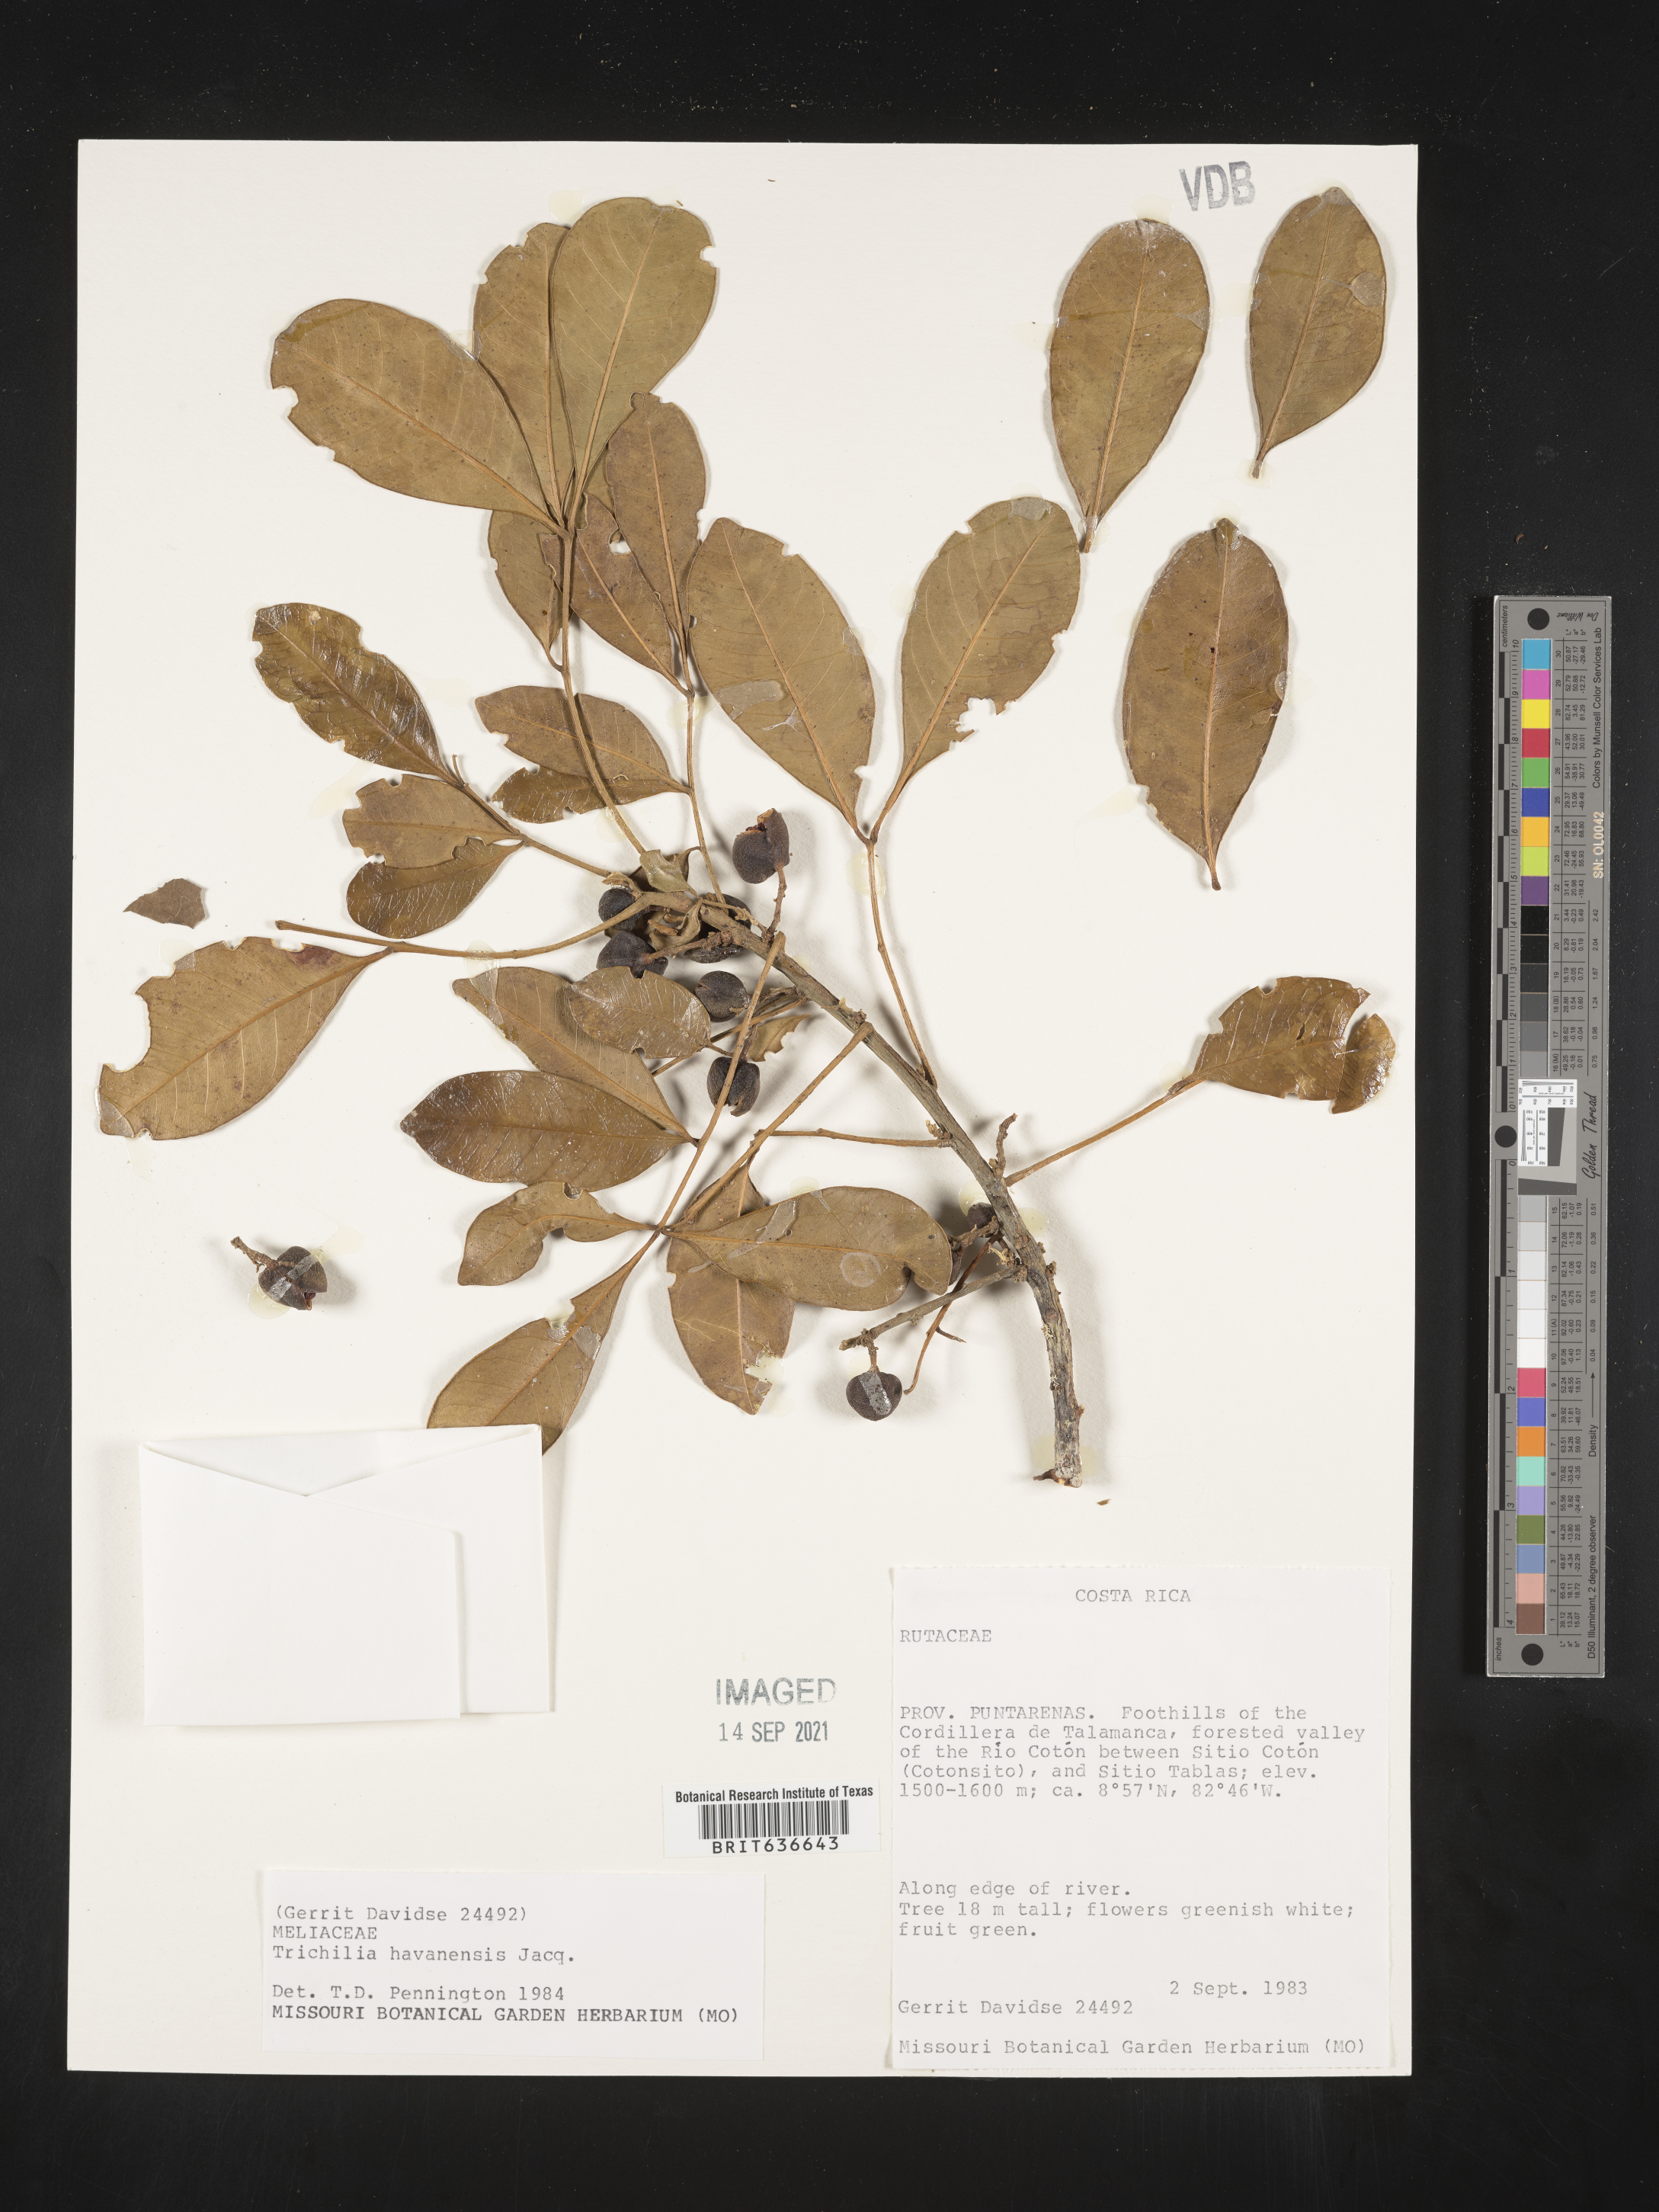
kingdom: Plantae
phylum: Tracheophyta
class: Magnoliopsida
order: Sapindales
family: Meliaceae
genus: Trichilia
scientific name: Trichilia
